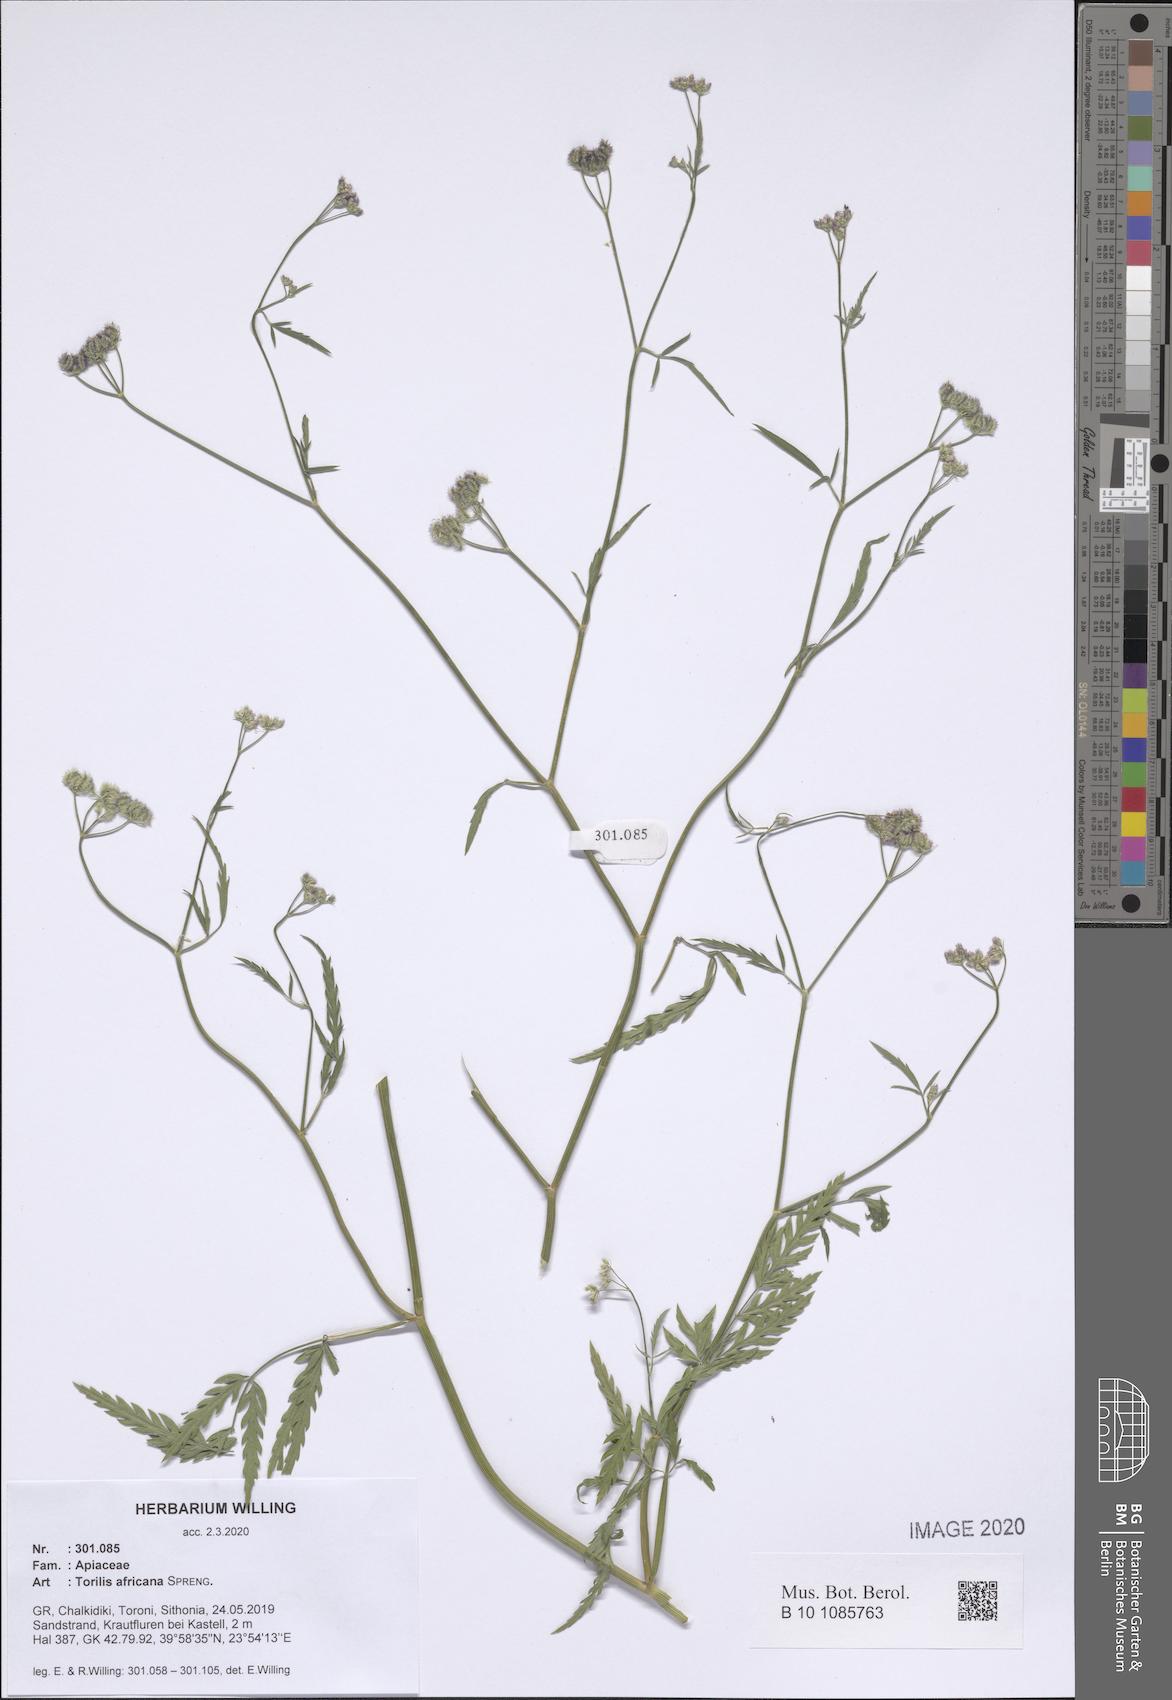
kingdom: Plantae
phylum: Tracheophyta
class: Magnoliopsida
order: Apiales
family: Apiaceae
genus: Torilis
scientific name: Torilis africana
